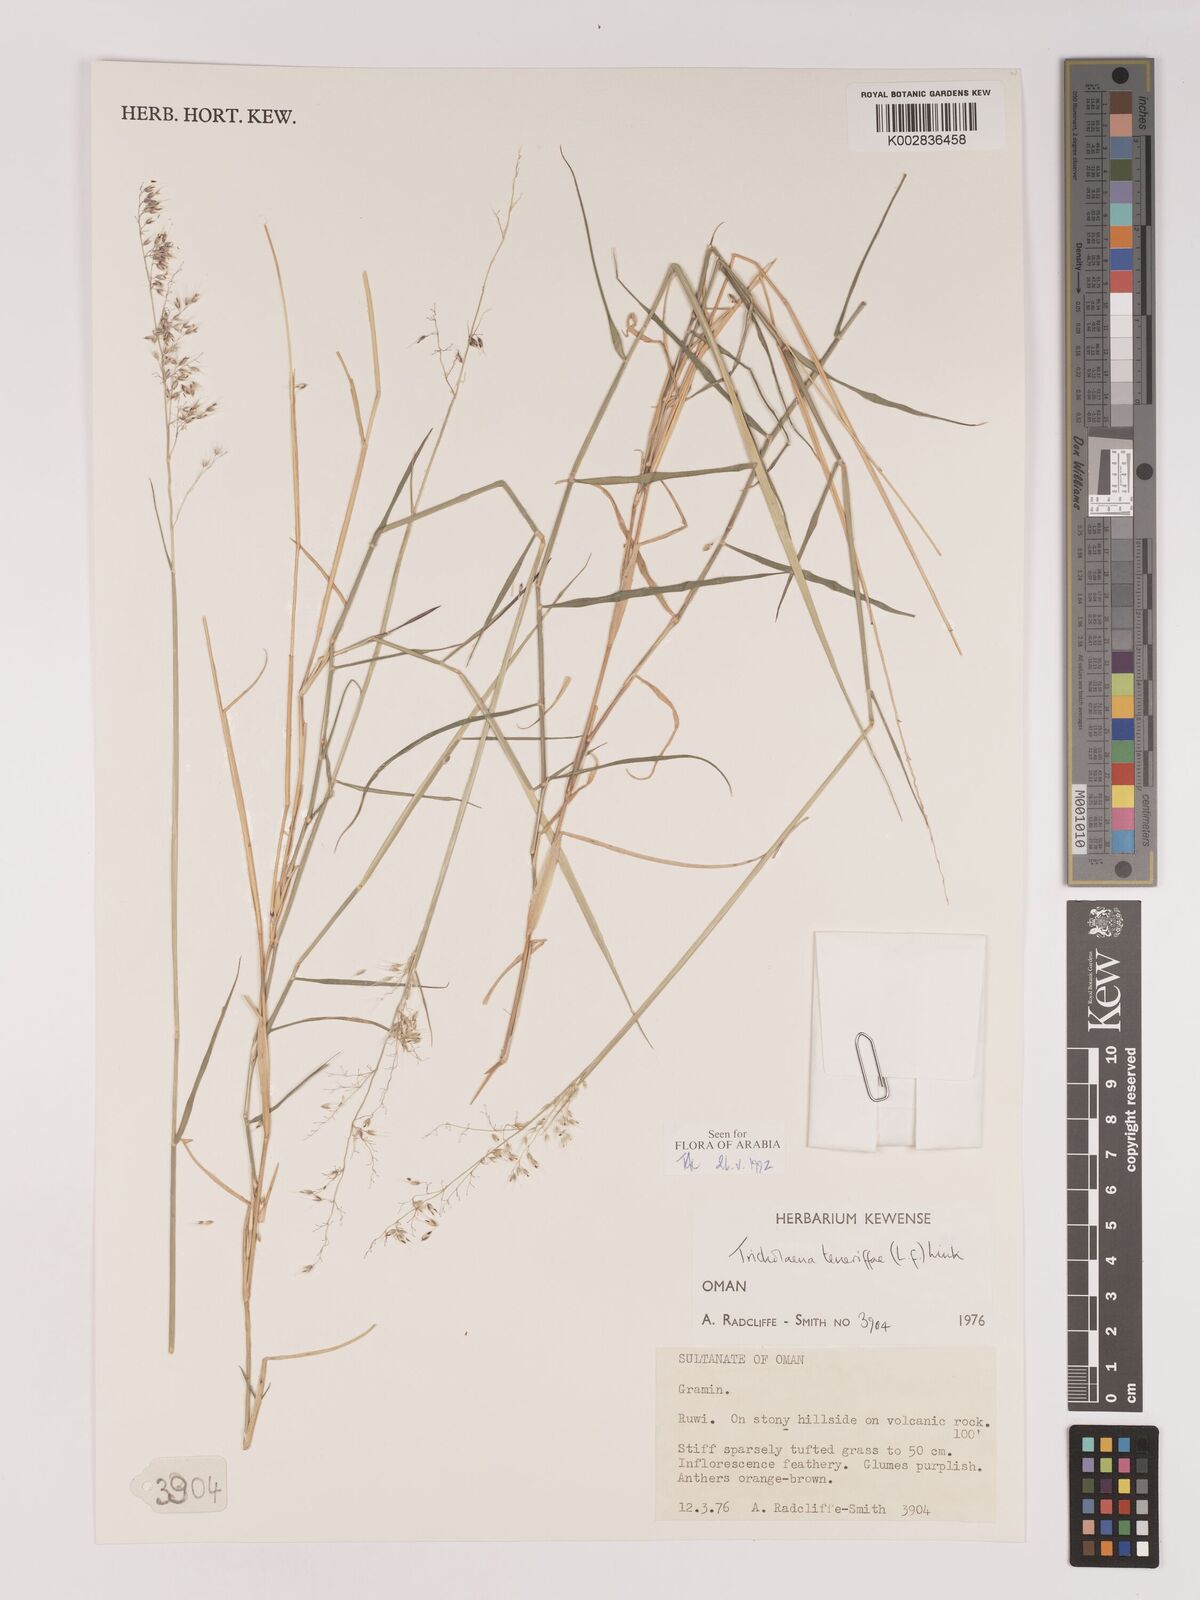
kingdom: Plantae
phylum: Tracheophyta
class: Liliopsida
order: Poales
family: Poaceae
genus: Tricholaena
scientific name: Tricholaena teneriffae
